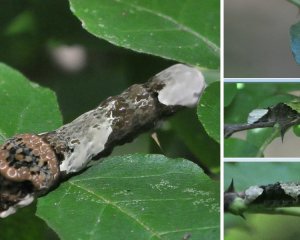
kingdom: Animalia
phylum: Arthropoda
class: Insecta
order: Lepidoptera
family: Papilionidae
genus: Papilio
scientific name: Papilio cresphontes
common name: Eastern Giant Swallowtail
